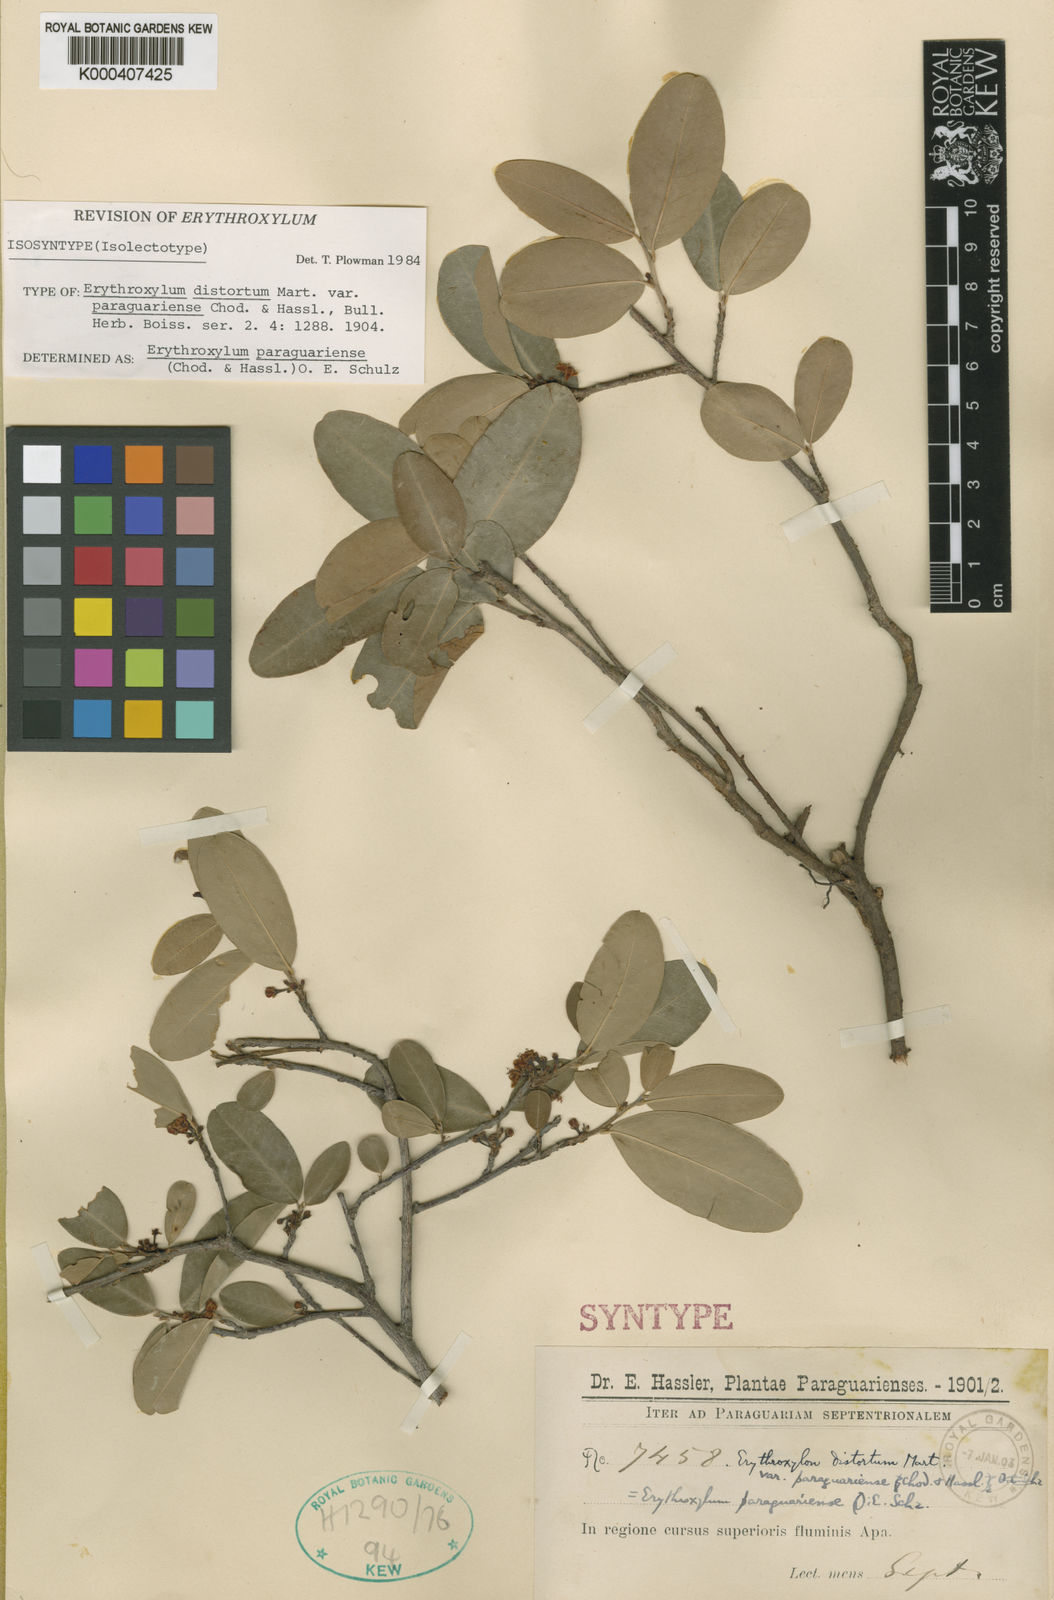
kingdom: Plantae
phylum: Tracheophyta
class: Magnoliopsida
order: Malpighiales
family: Erythroxylaceae
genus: Erythroxylum
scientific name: Erythroxylum paraguariense
